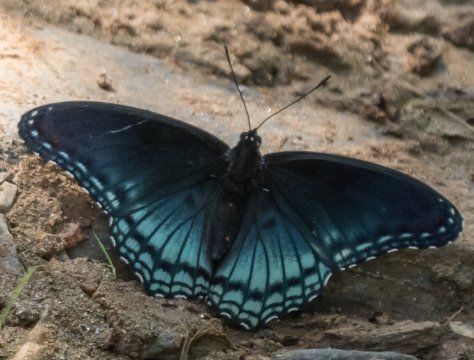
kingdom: Animalia
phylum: Arthropoda
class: Insecta
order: Lepidoptera
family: Nymphalidae
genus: Limenitis
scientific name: Limenitis arthemis
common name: Red-spotted Admiral
